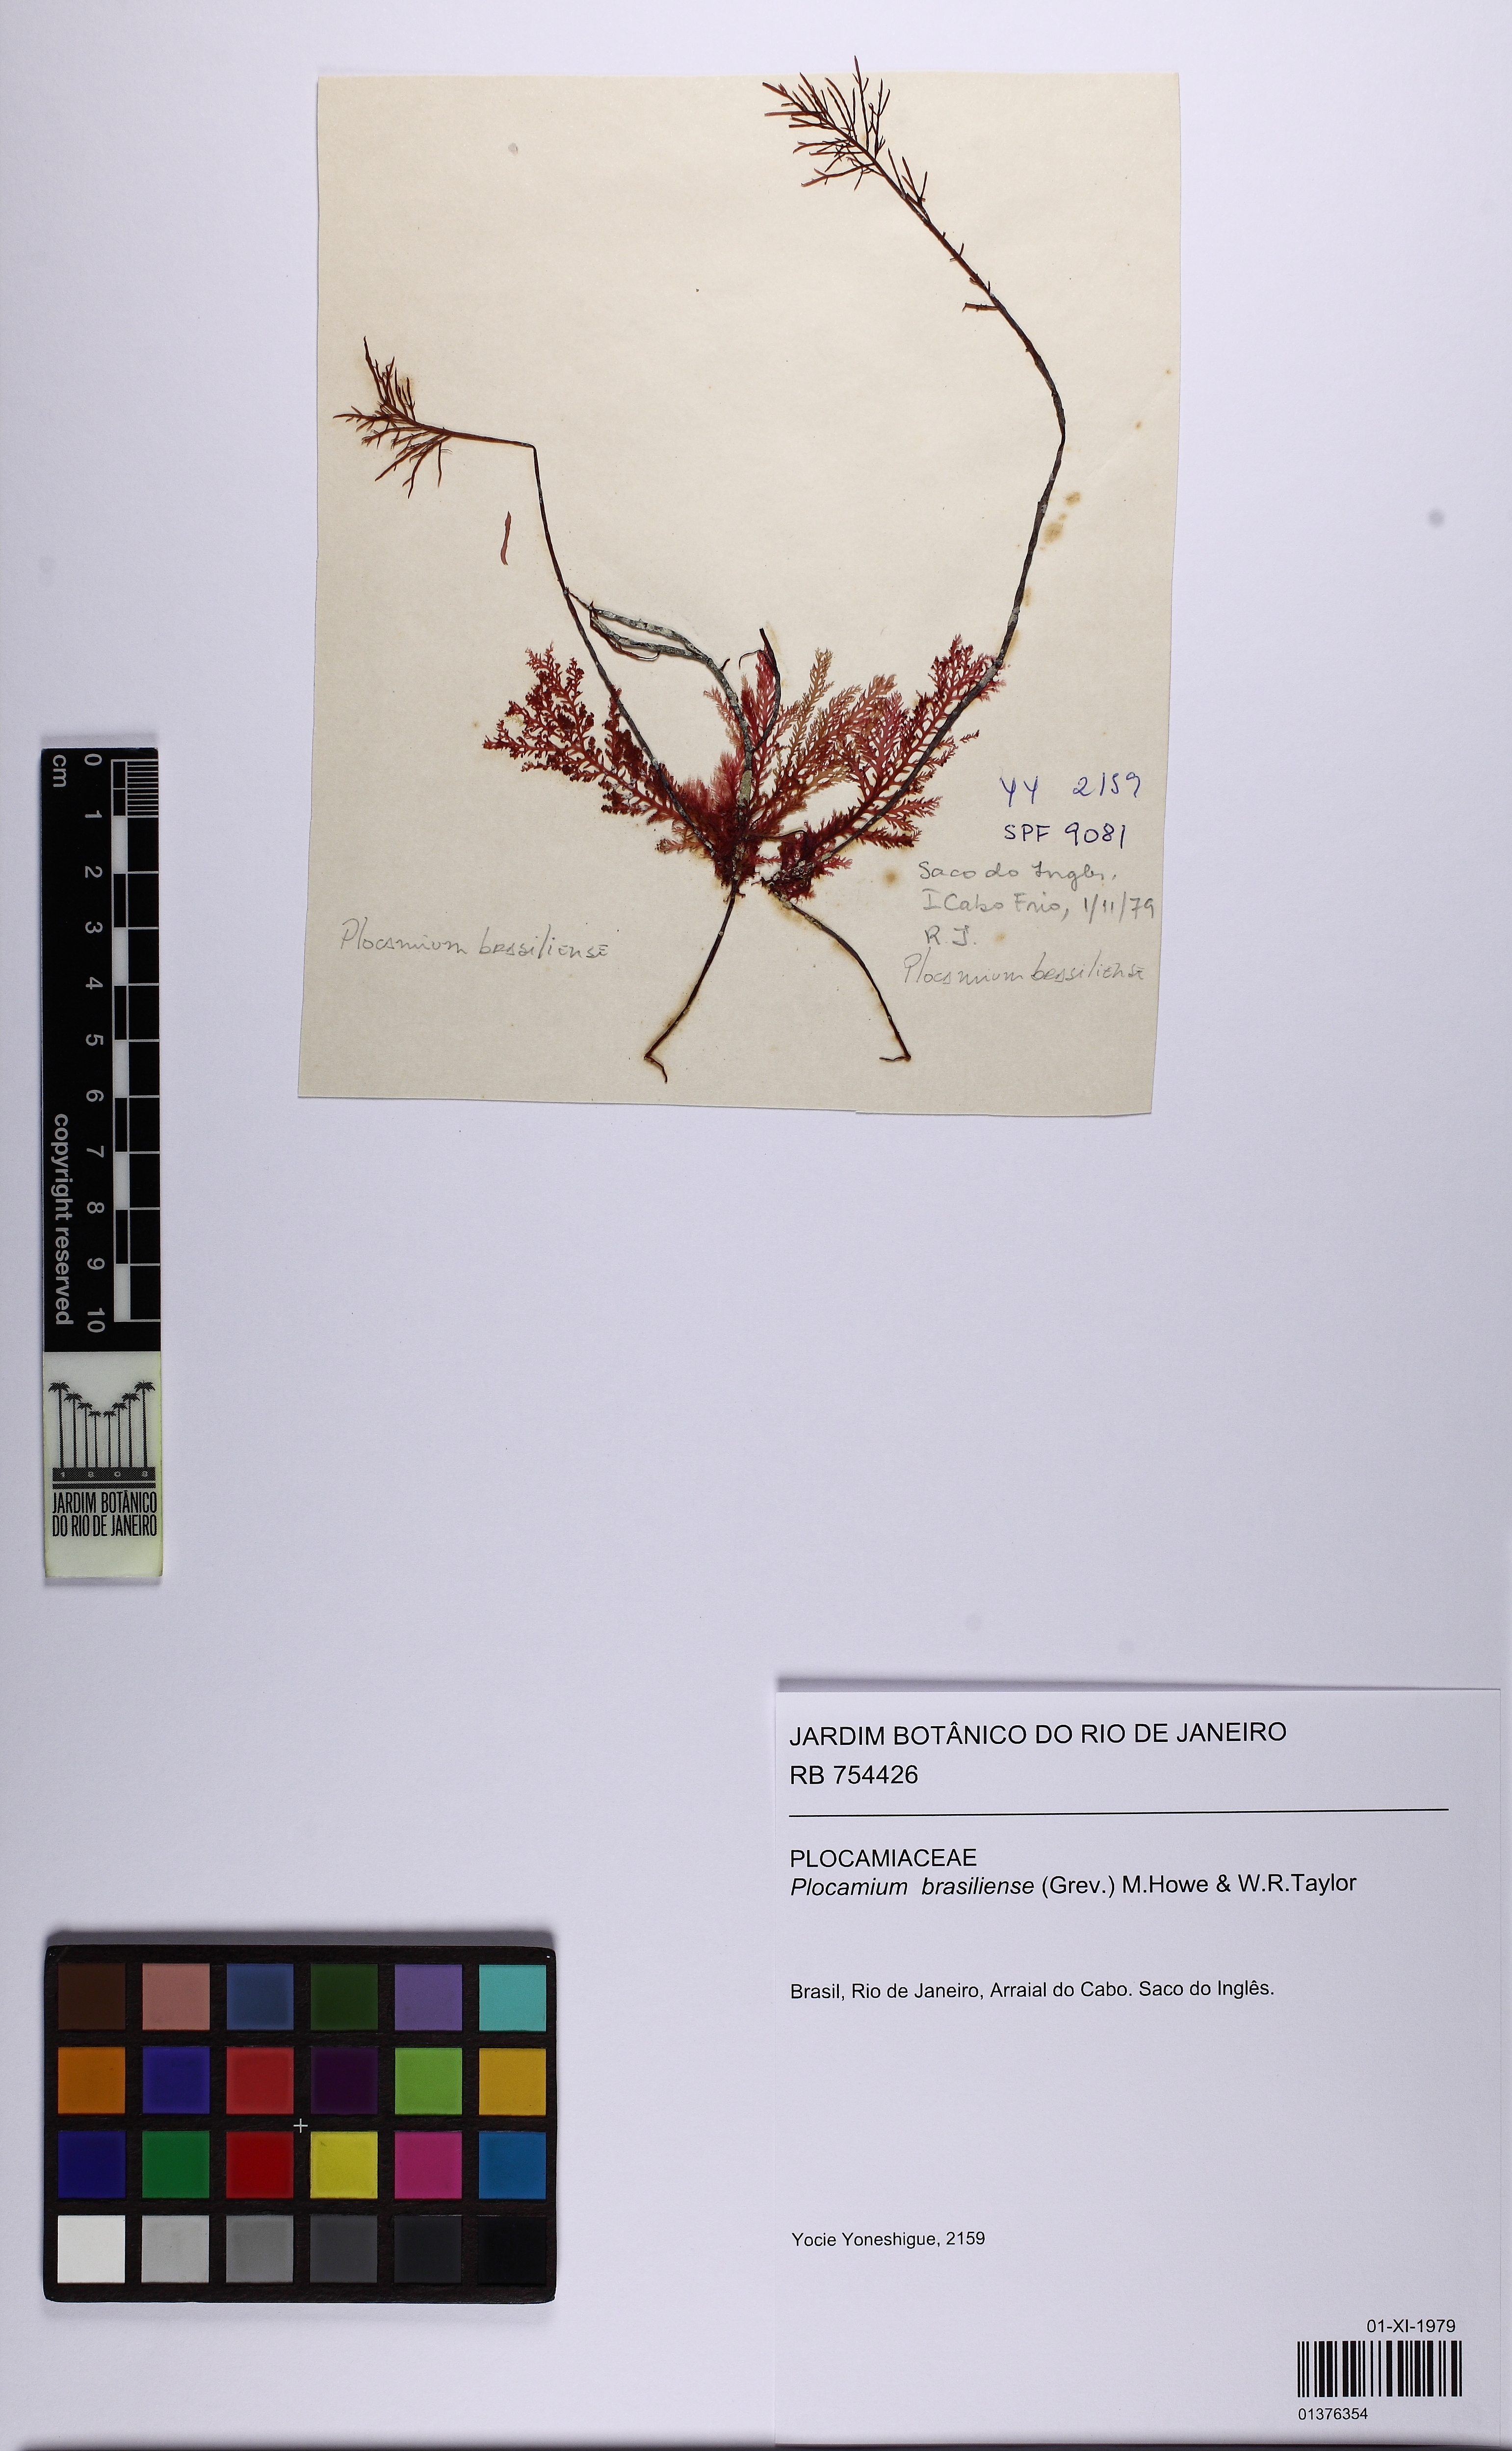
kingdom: Plantae
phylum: Rhodophyta
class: Florideophyceae
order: Plocamiales
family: Plocamiaceae
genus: Plocamium
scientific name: Plocamium brasiliense
